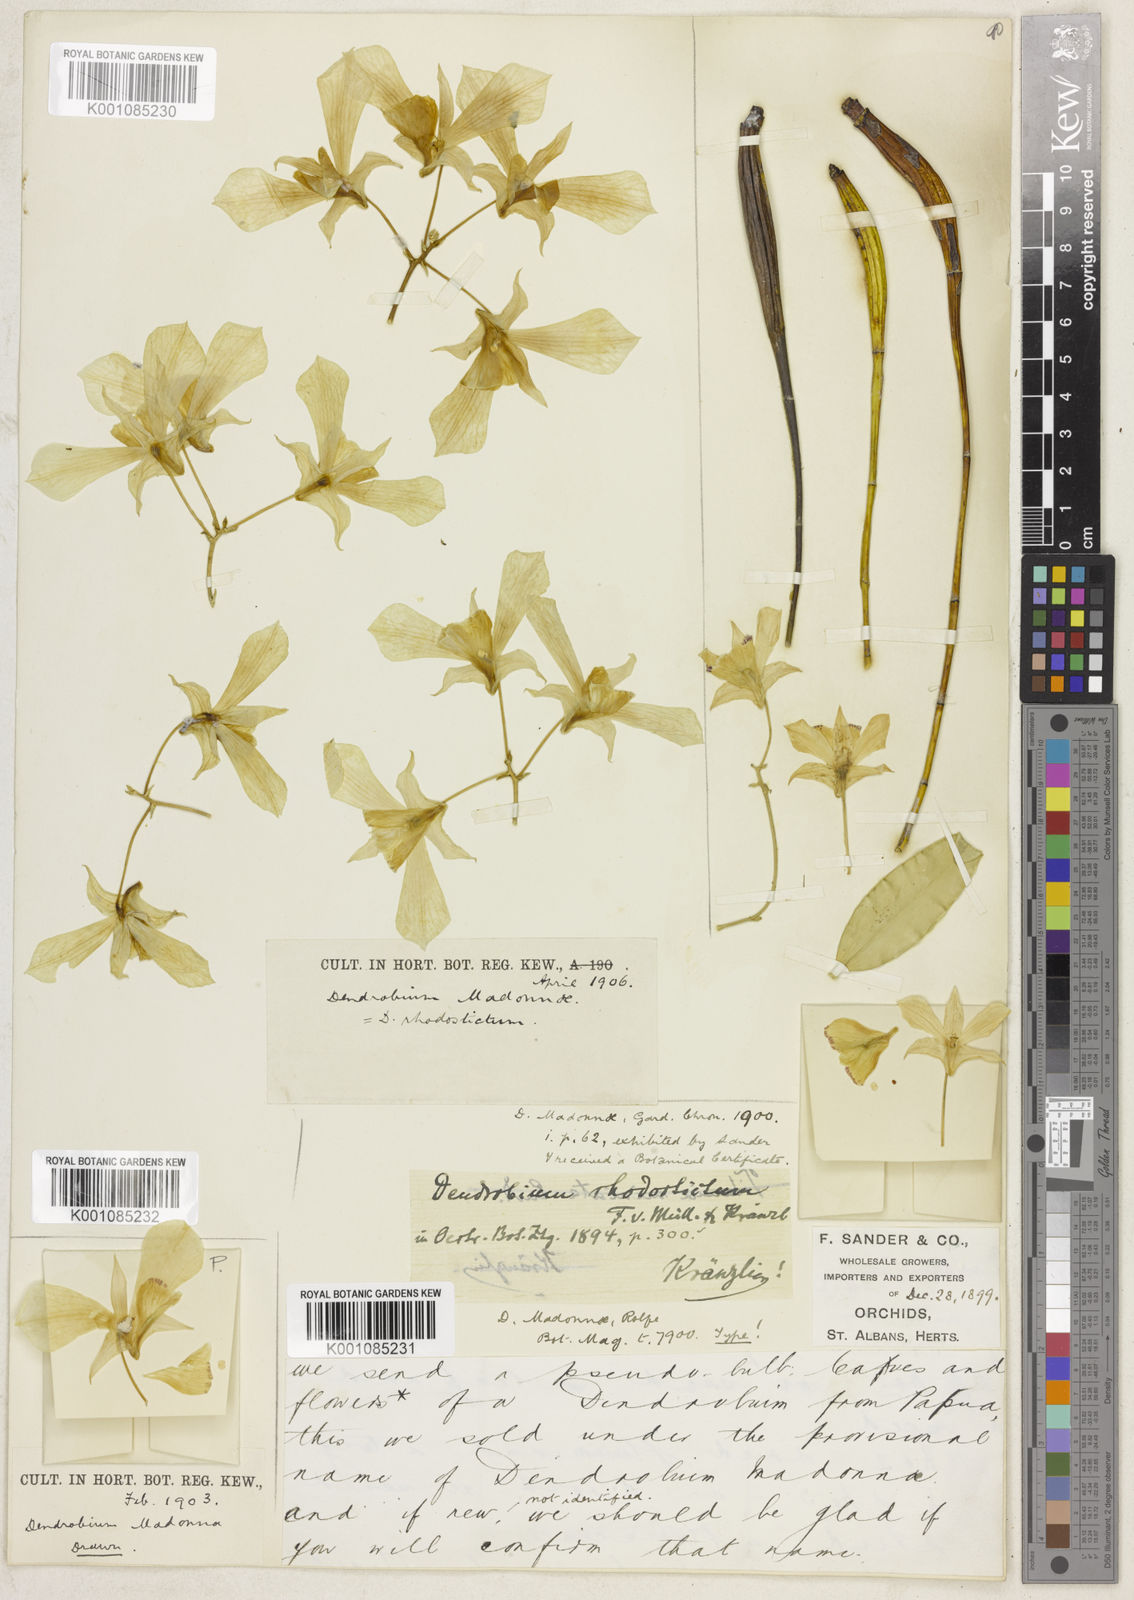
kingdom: Plantae
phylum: Tracheophyta
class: Liliopsida
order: Asparagales
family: Orchidaceae
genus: Dendrobium
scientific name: Dendrobium rhodostictum
